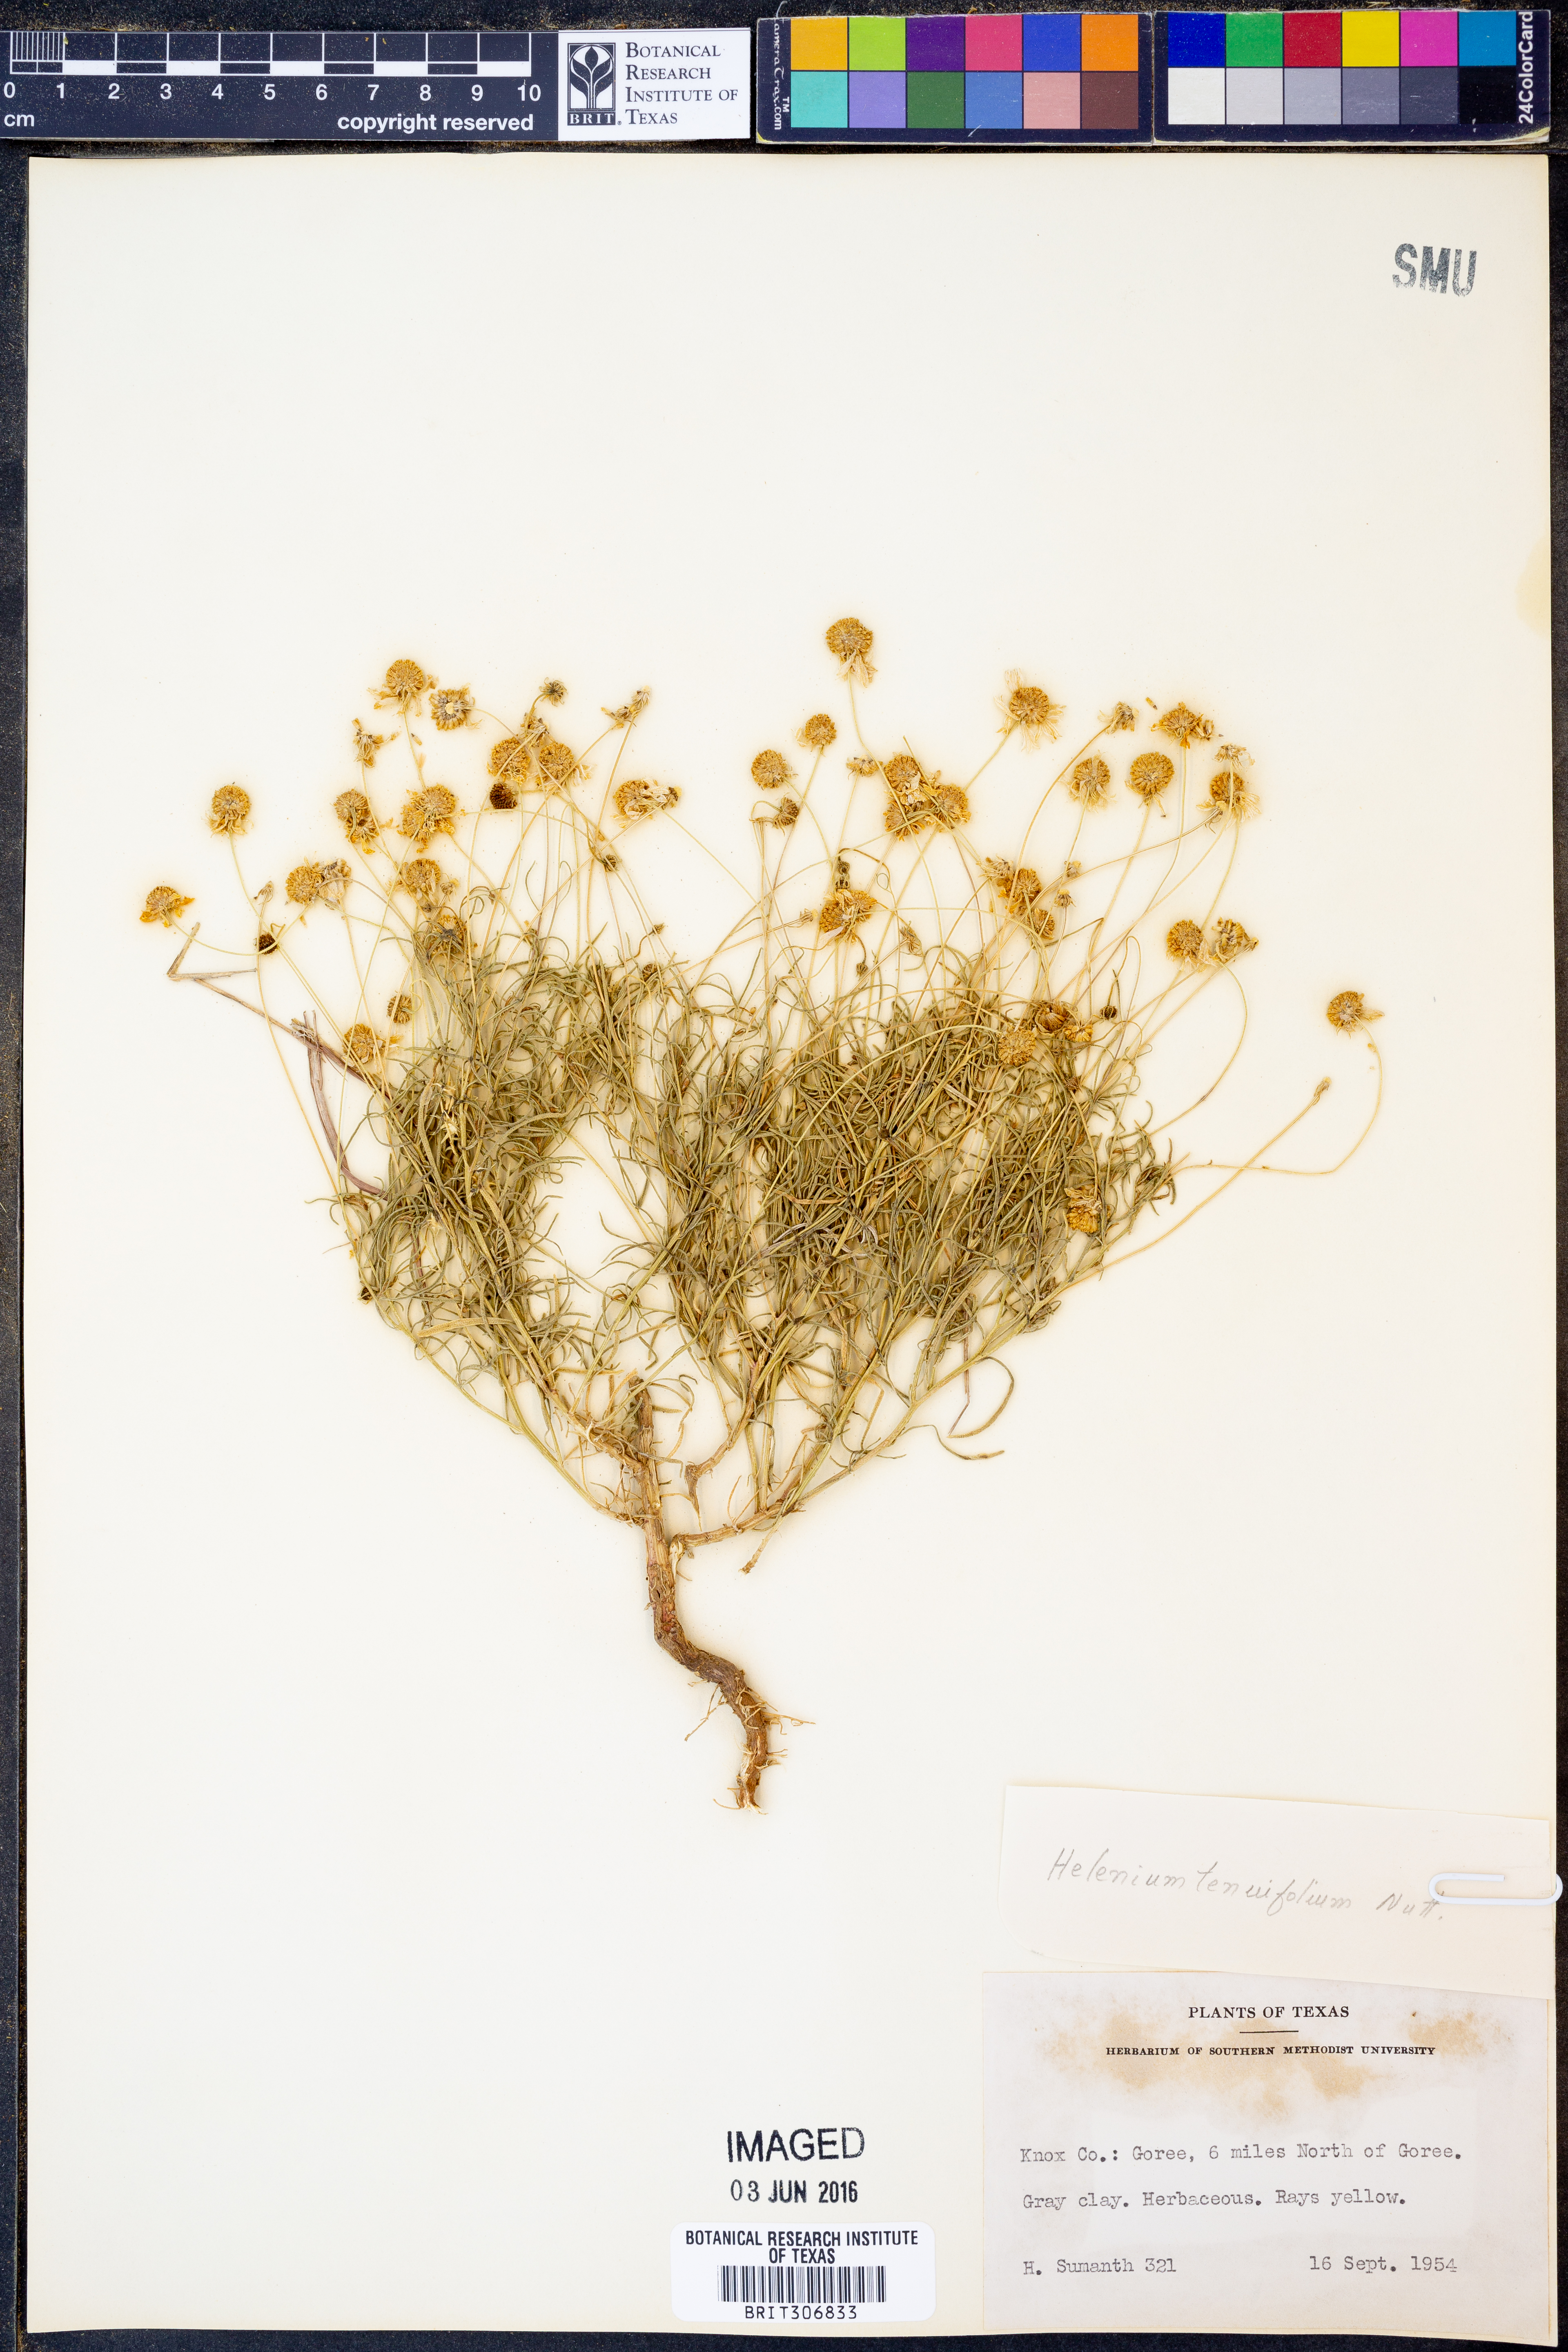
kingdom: Plantae
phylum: Tracheophyta
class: Magnoliopsida
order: Asterales
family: Asteraceae
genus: Helenium
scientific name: Helenium amarum
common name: Bitter sneezeweed
